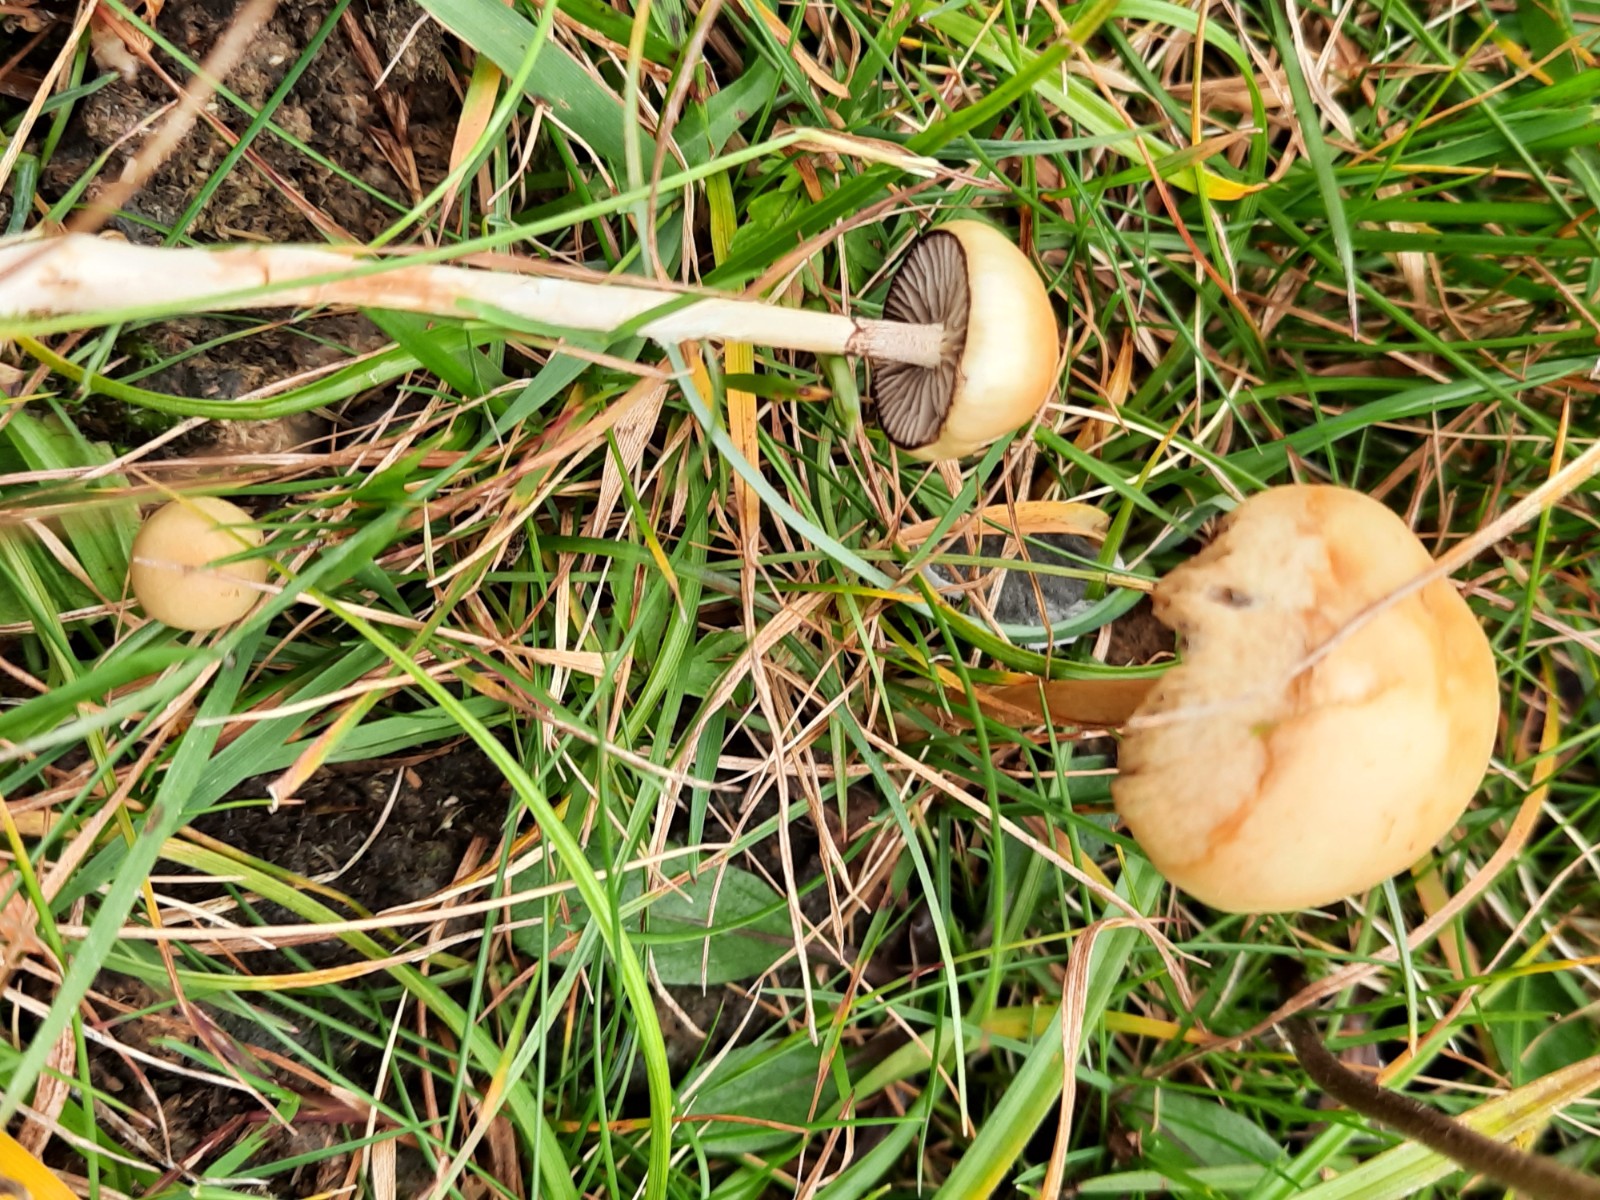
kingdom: Fungi
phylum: Basidiomycota
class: Agaricomycetes
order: Agaricales
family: Strophariaceae
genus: Protostropharia
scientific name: Protostropharia semiglobata
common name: halvkugleformet bredblad
